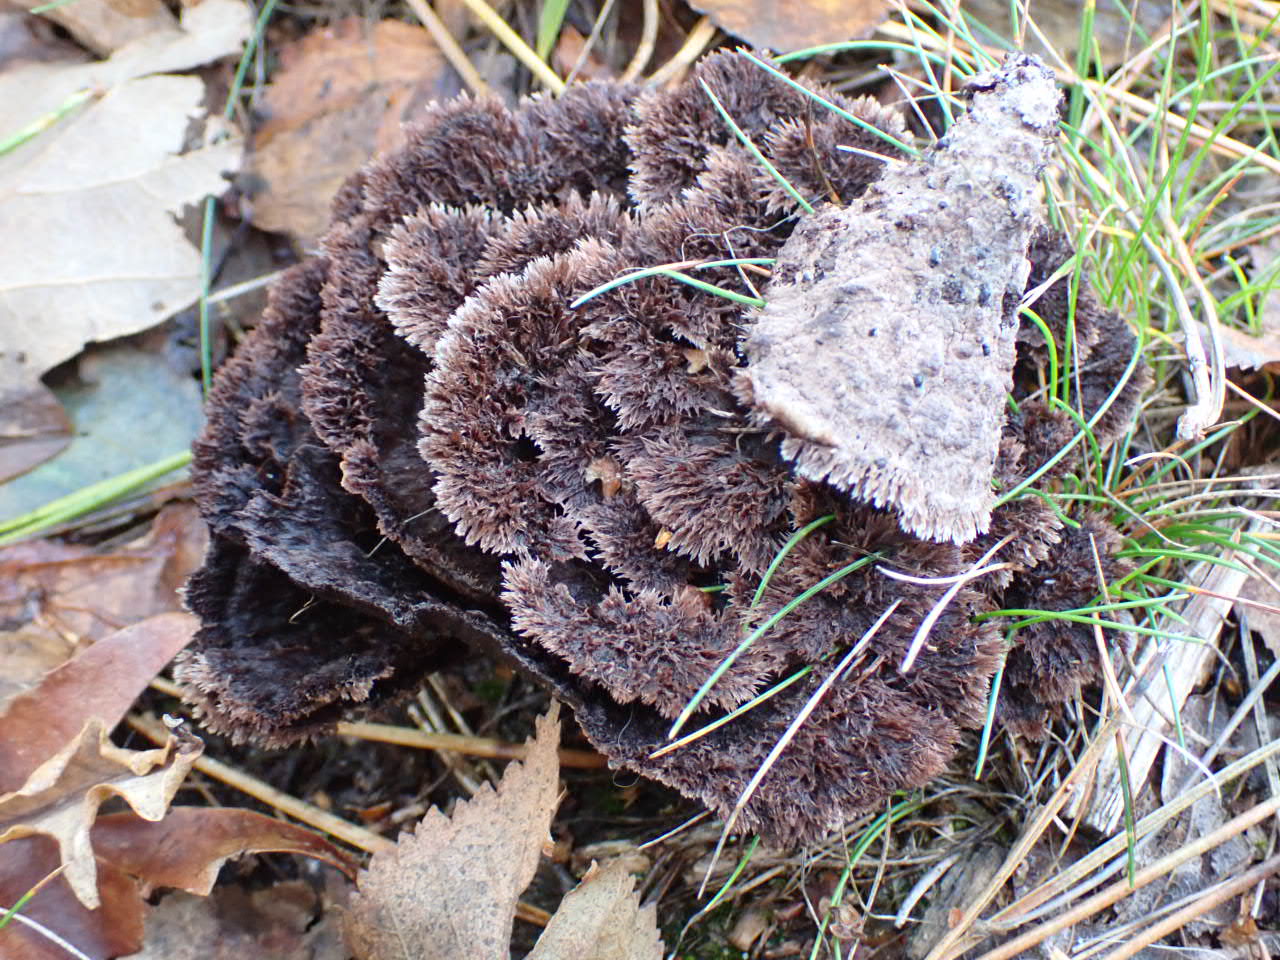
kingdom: Fungi
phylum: Basidiomycota
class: Agaricomycetes
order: Thelephorales
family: Thelephoraceae
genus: Thelephora
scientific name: Thelephora terrestris
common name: fliget frynsesvamp
